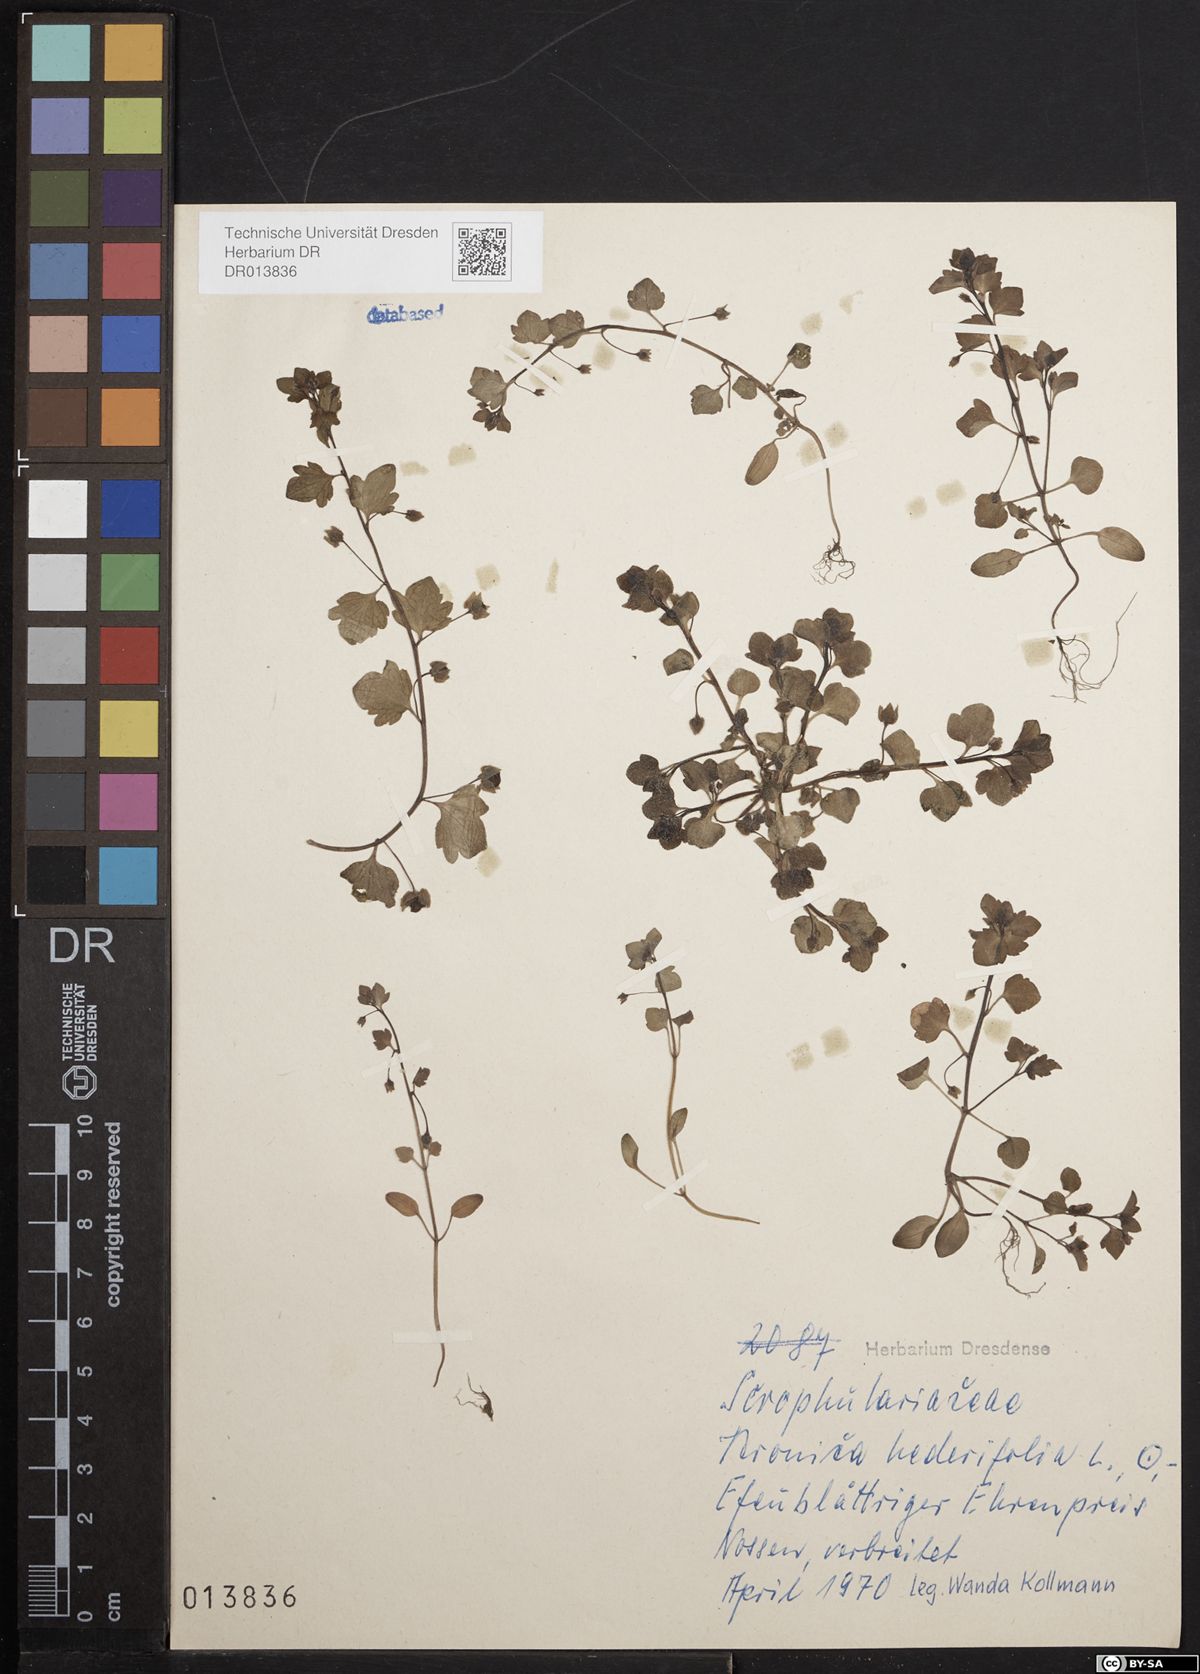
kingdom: Plantae
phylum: Tracheophyta
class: Magnoliopsida
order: Lamiales
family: Plantaginaceae
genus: Veronica
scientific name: Veronica hederifolia
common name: Ivy-leaved speedwell
